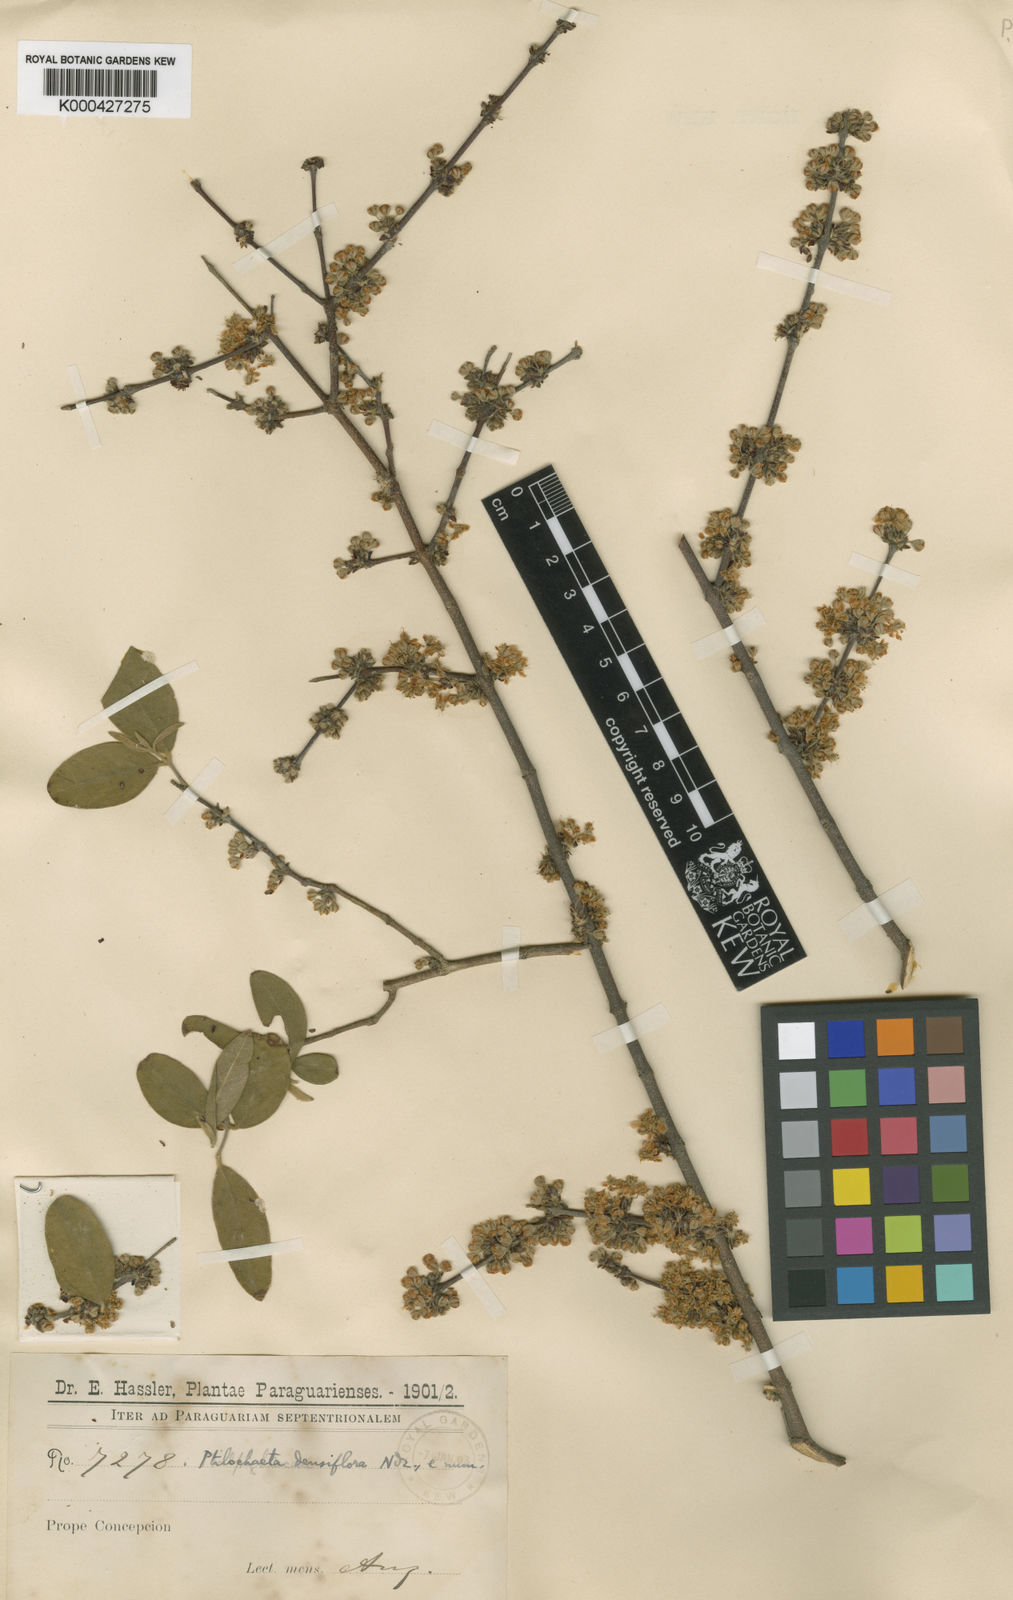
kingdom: Plantae
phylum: Tracheophyta
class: Magnoliopsida
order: Malpighiales
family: Malpighiaceae
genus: Ptilochaeta
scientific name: Ptilochaeta densiflora
